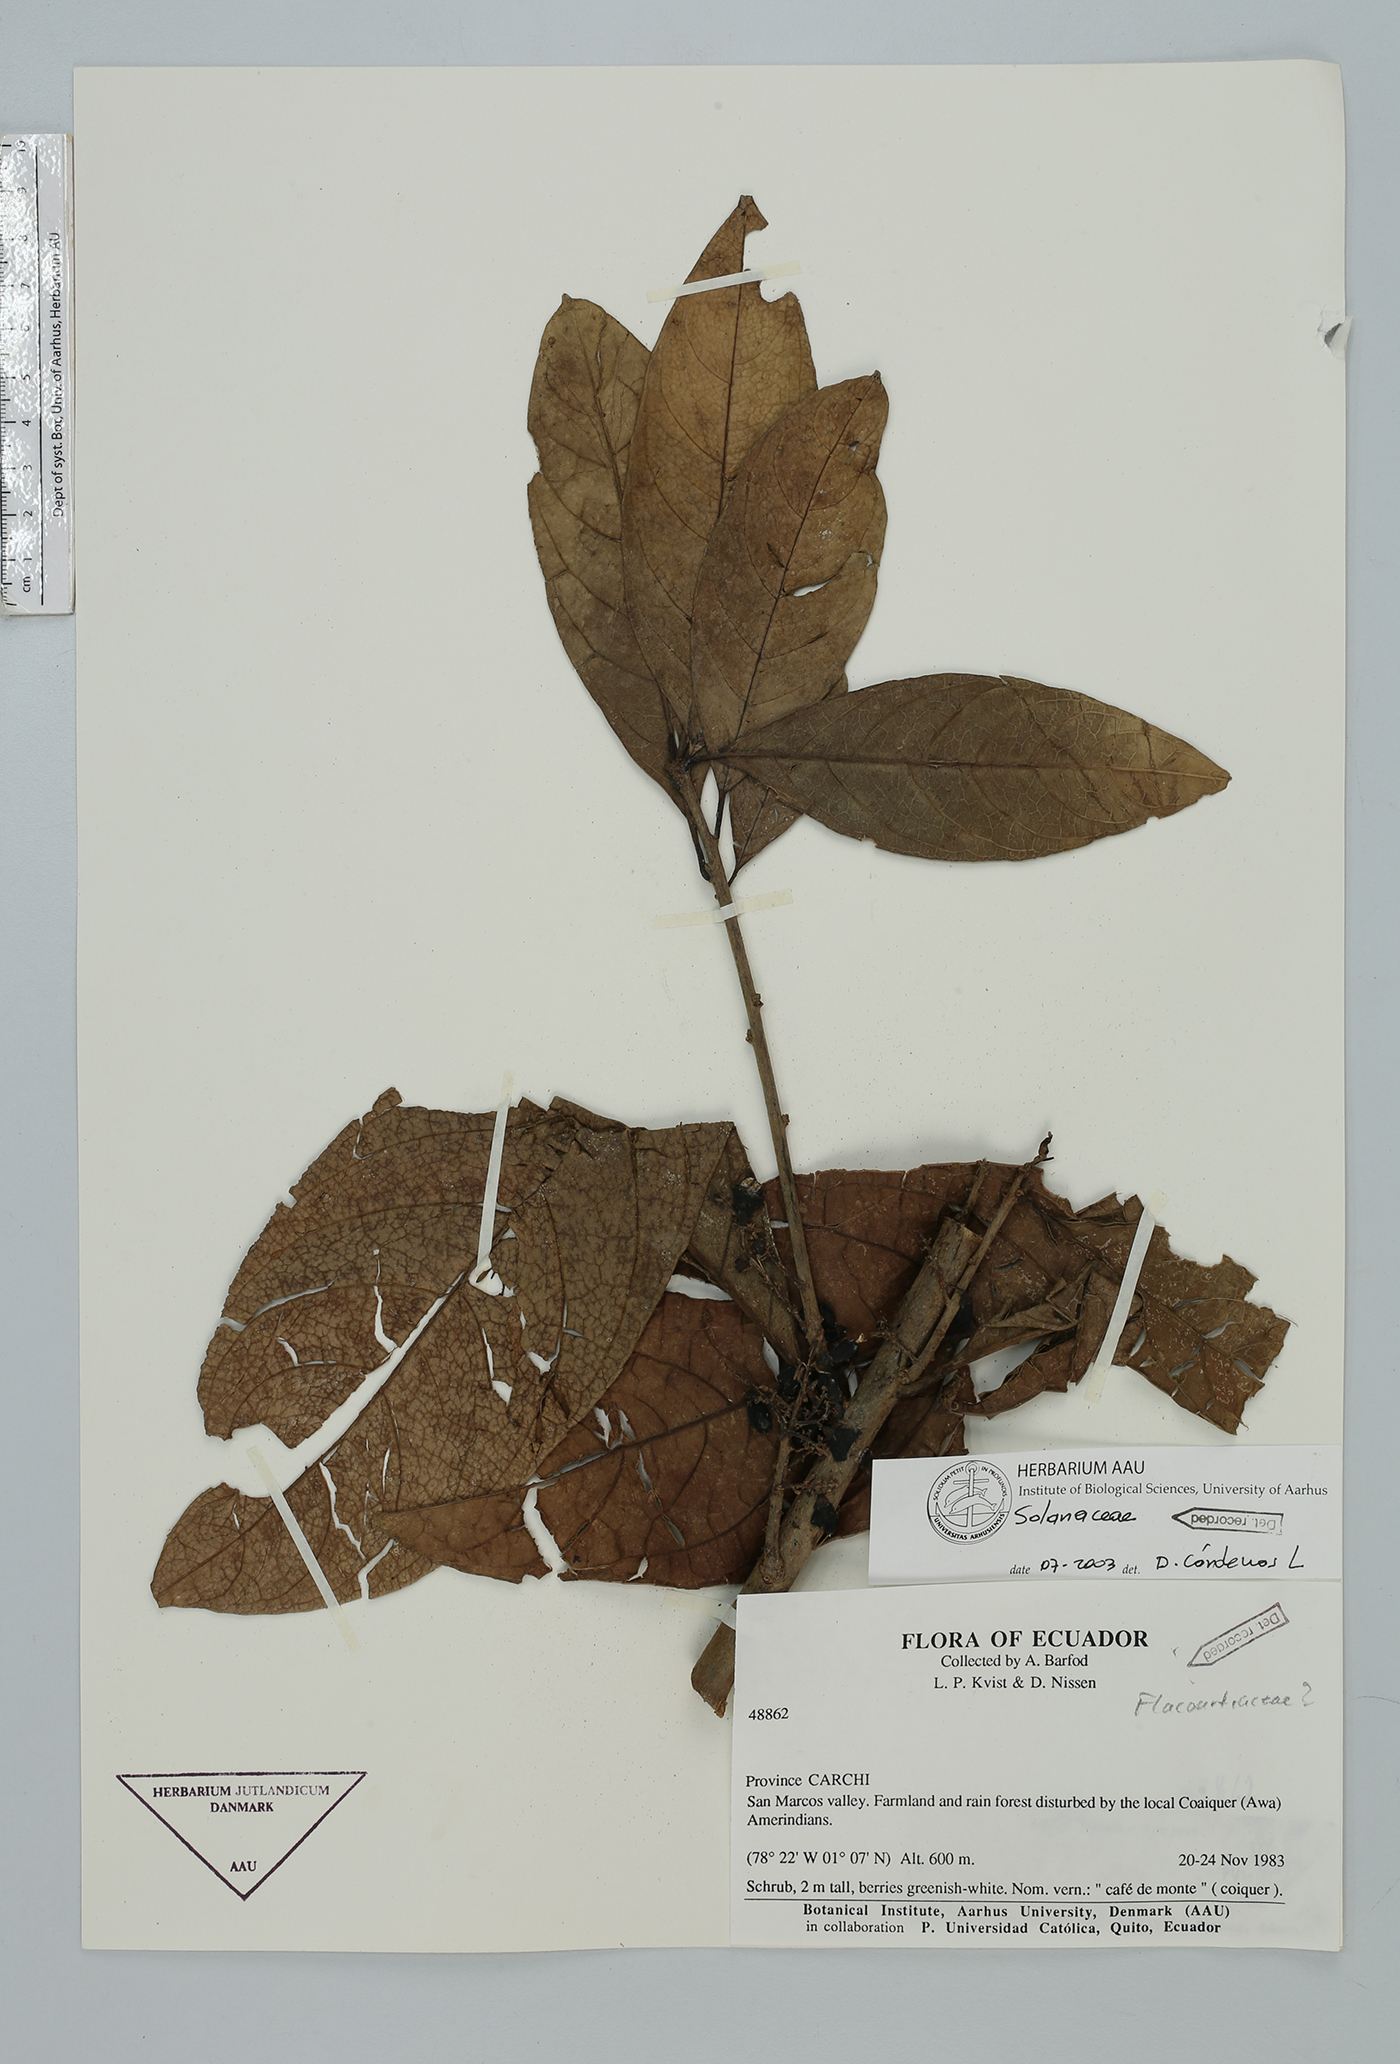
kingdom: Plantae
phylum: Tracheophyta
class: Magnoliopsida
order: Solanales
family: Solanaceae
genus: Cestrum
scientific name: Cestrum
